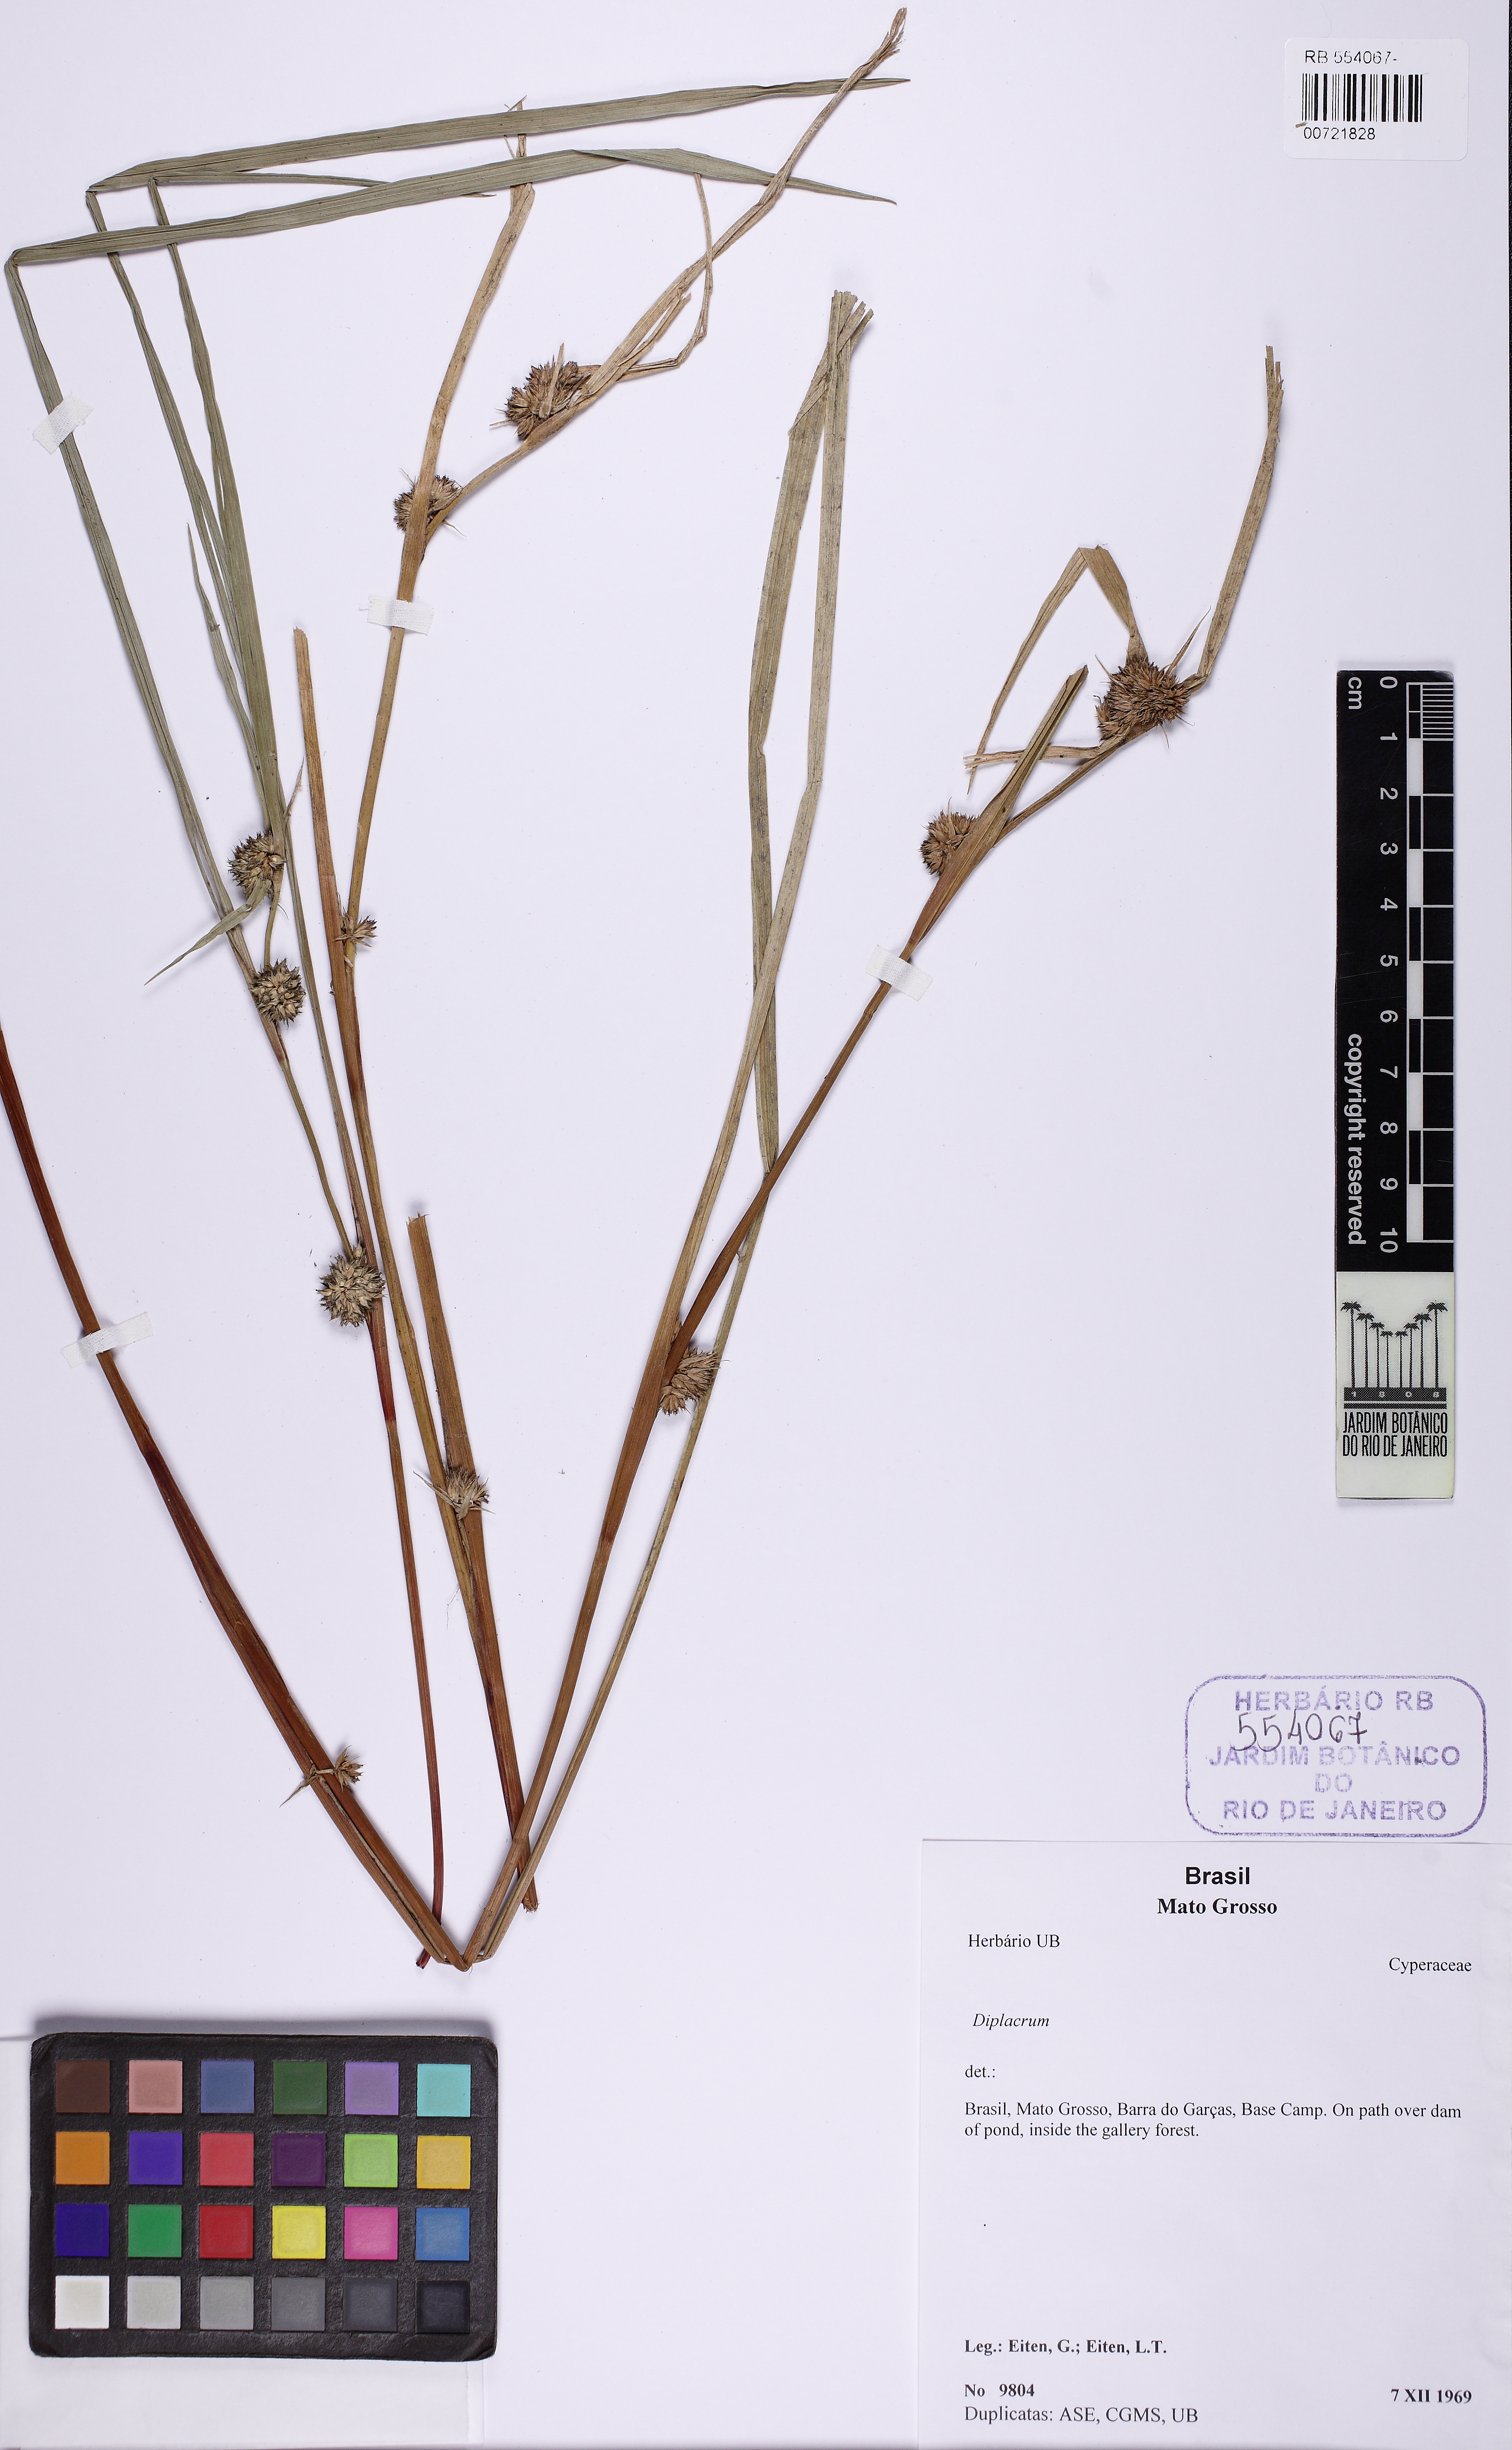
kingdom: Plantae
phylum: Tracheophyta
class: Liliopsida
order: Poales
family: Cyperaceae
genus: Diplacrum
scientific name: Diplacrum capitatum
